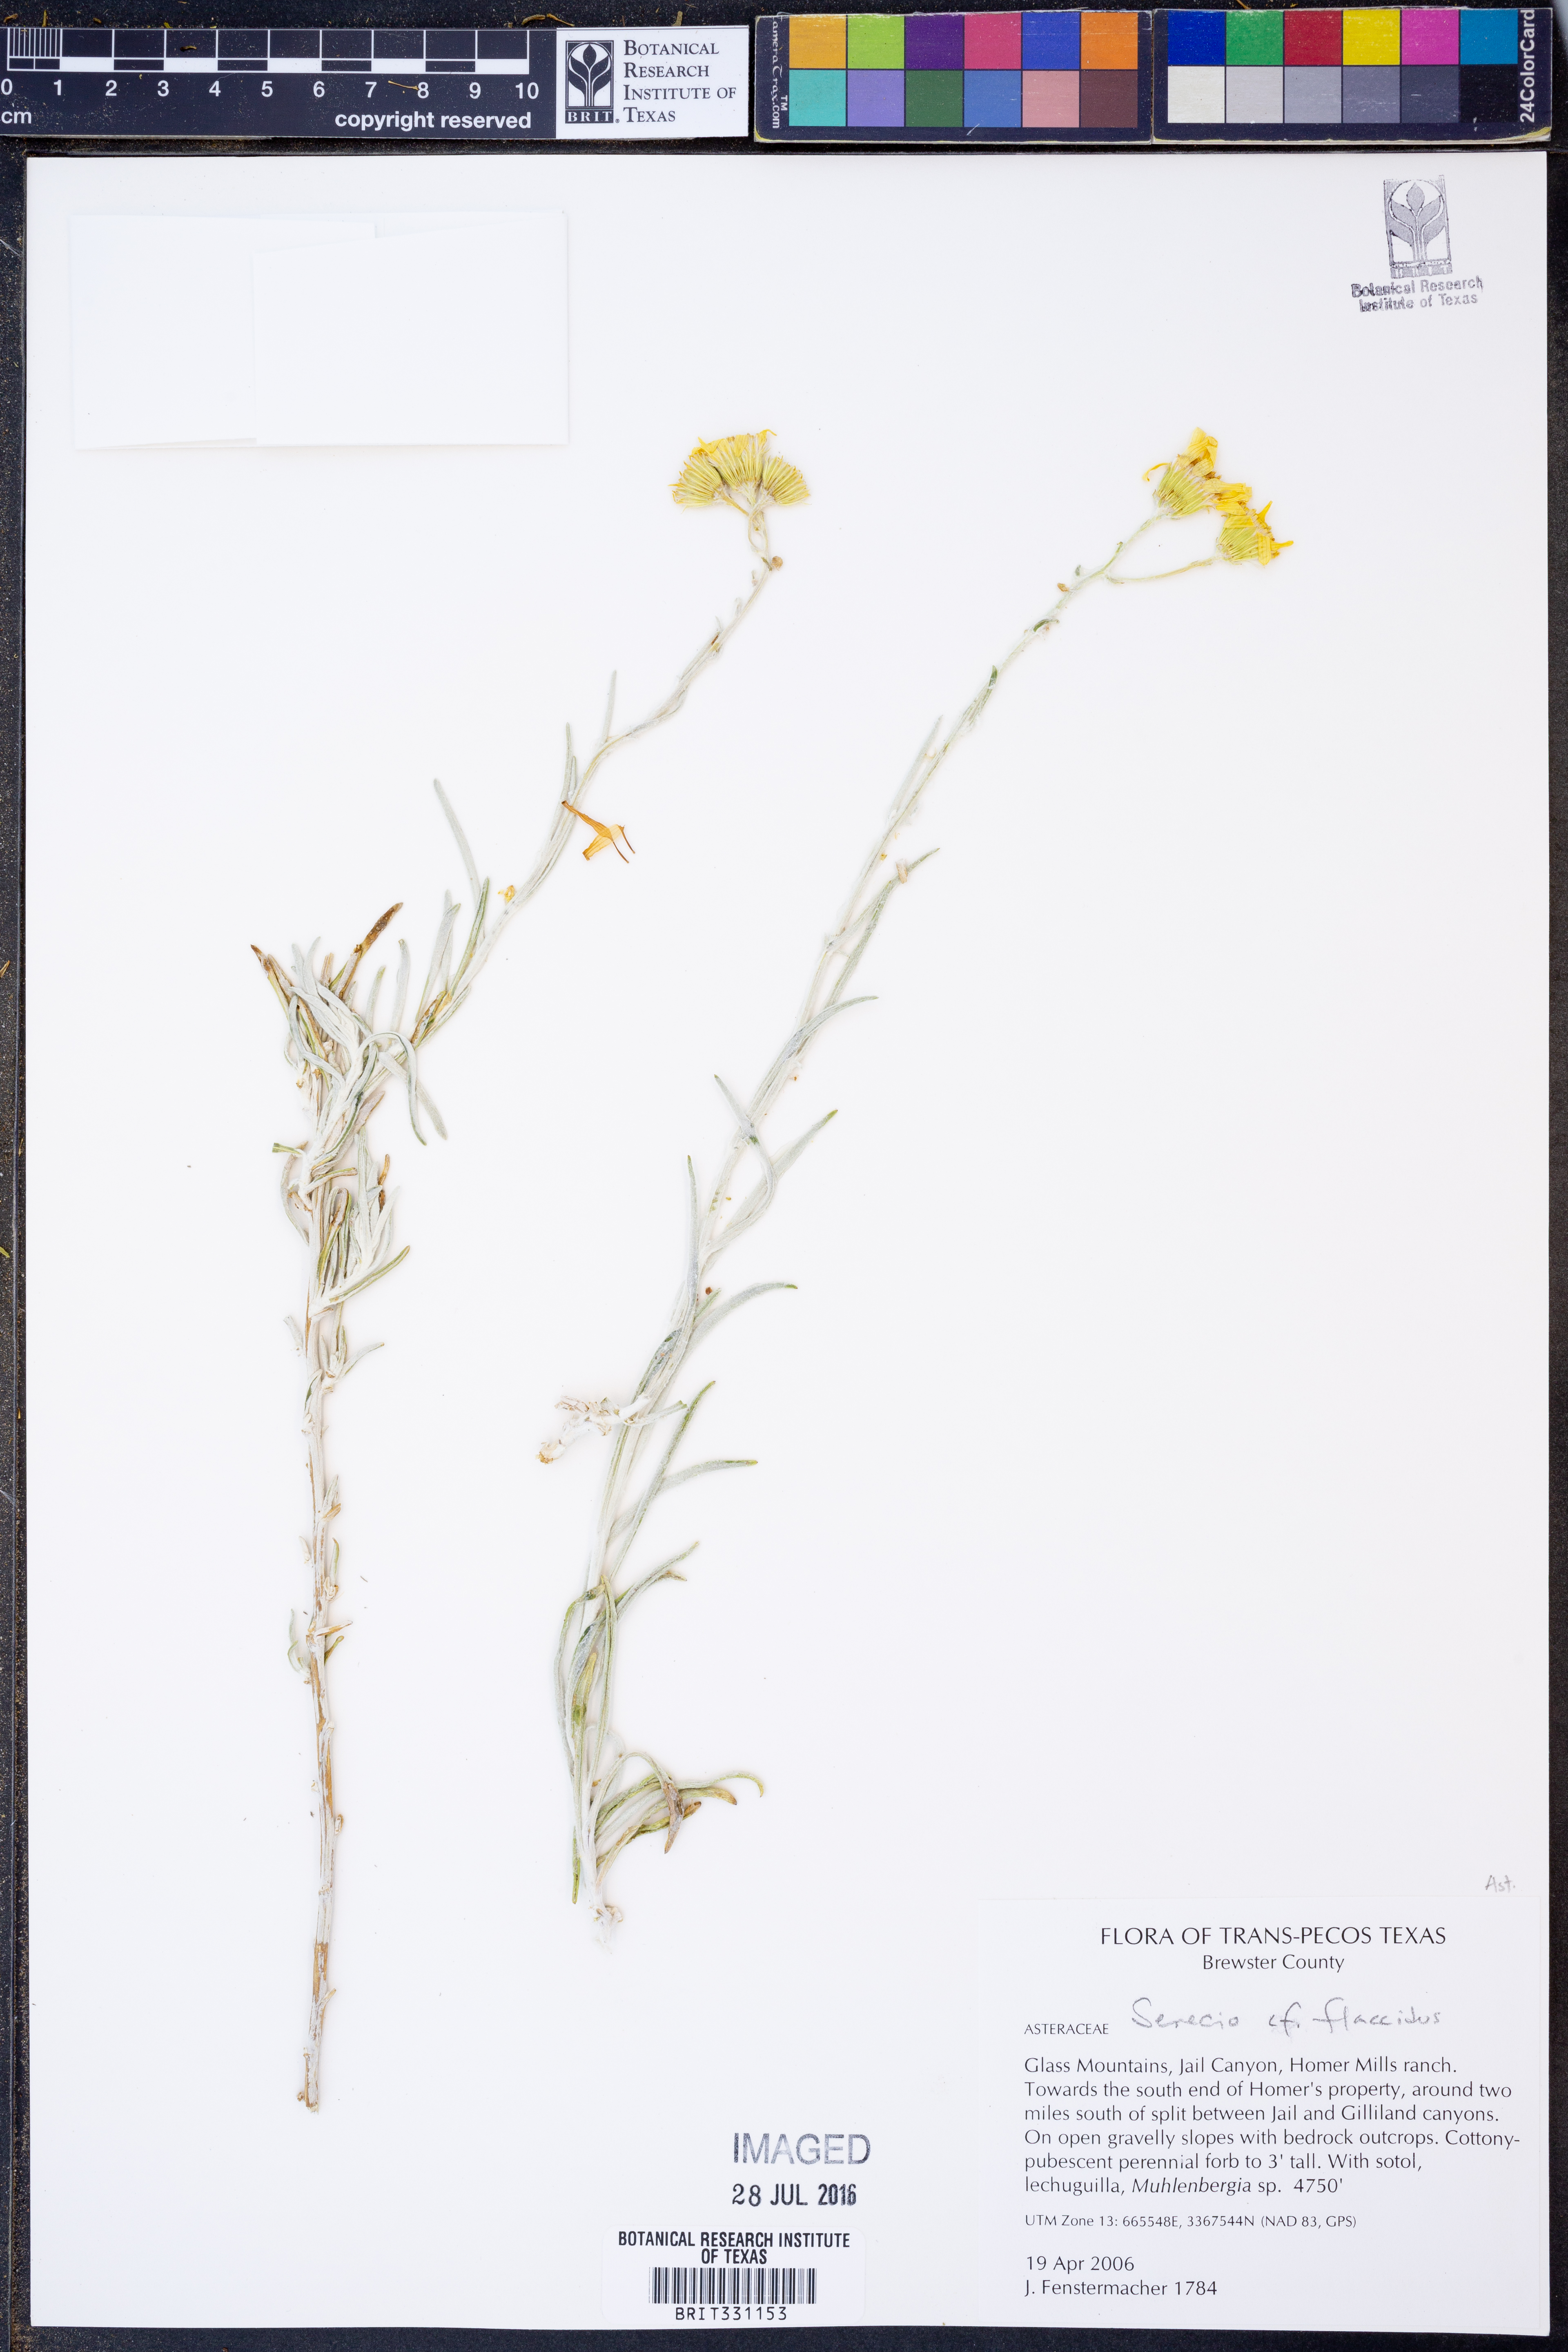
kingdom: Plantae
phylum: Tracheophyta
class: Magnoliopsida
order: Asterales
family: Asteraceae
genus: Senecio
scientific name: Senecio flaccidus
